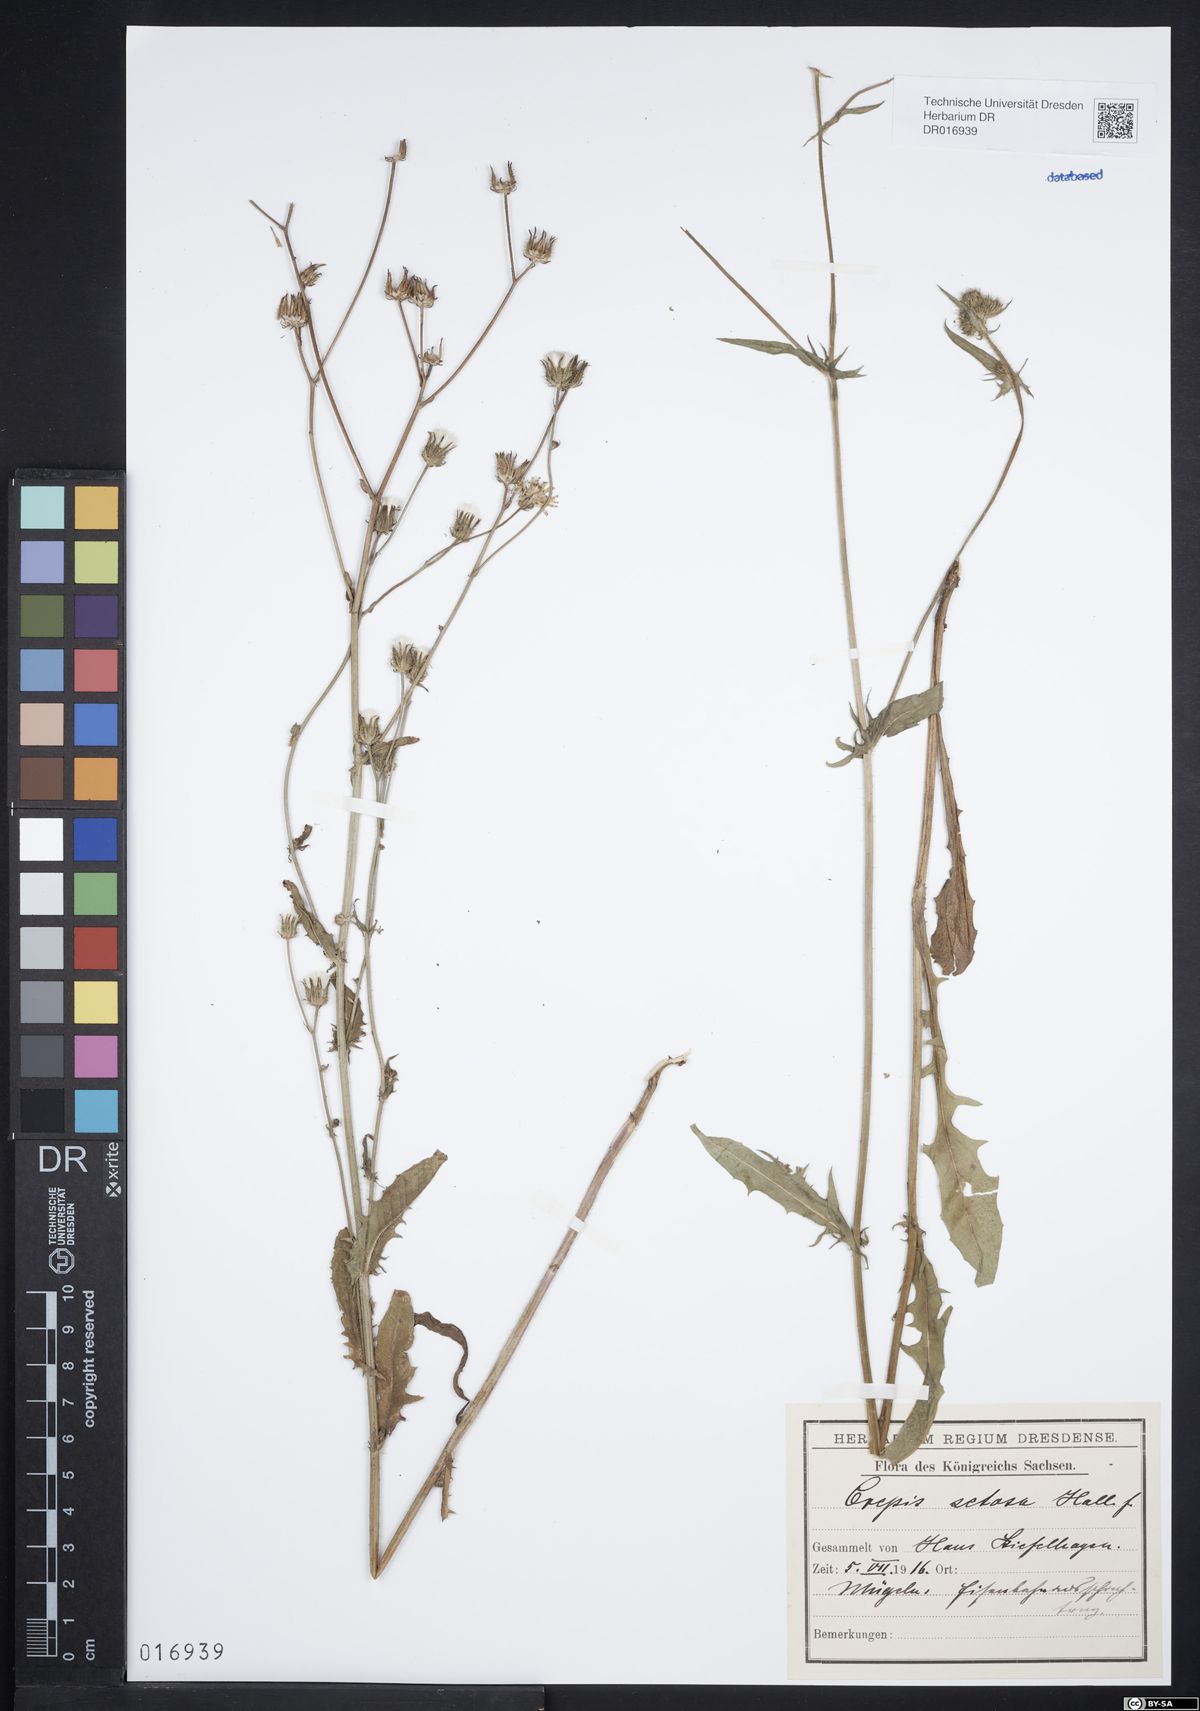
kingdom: Plantae
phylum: Tracheophyta
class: Magnoliopsida
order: Asterales
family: Asteraceae
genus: Crepis
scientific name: Crepis setosa
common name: Bristly hawk's-beard
